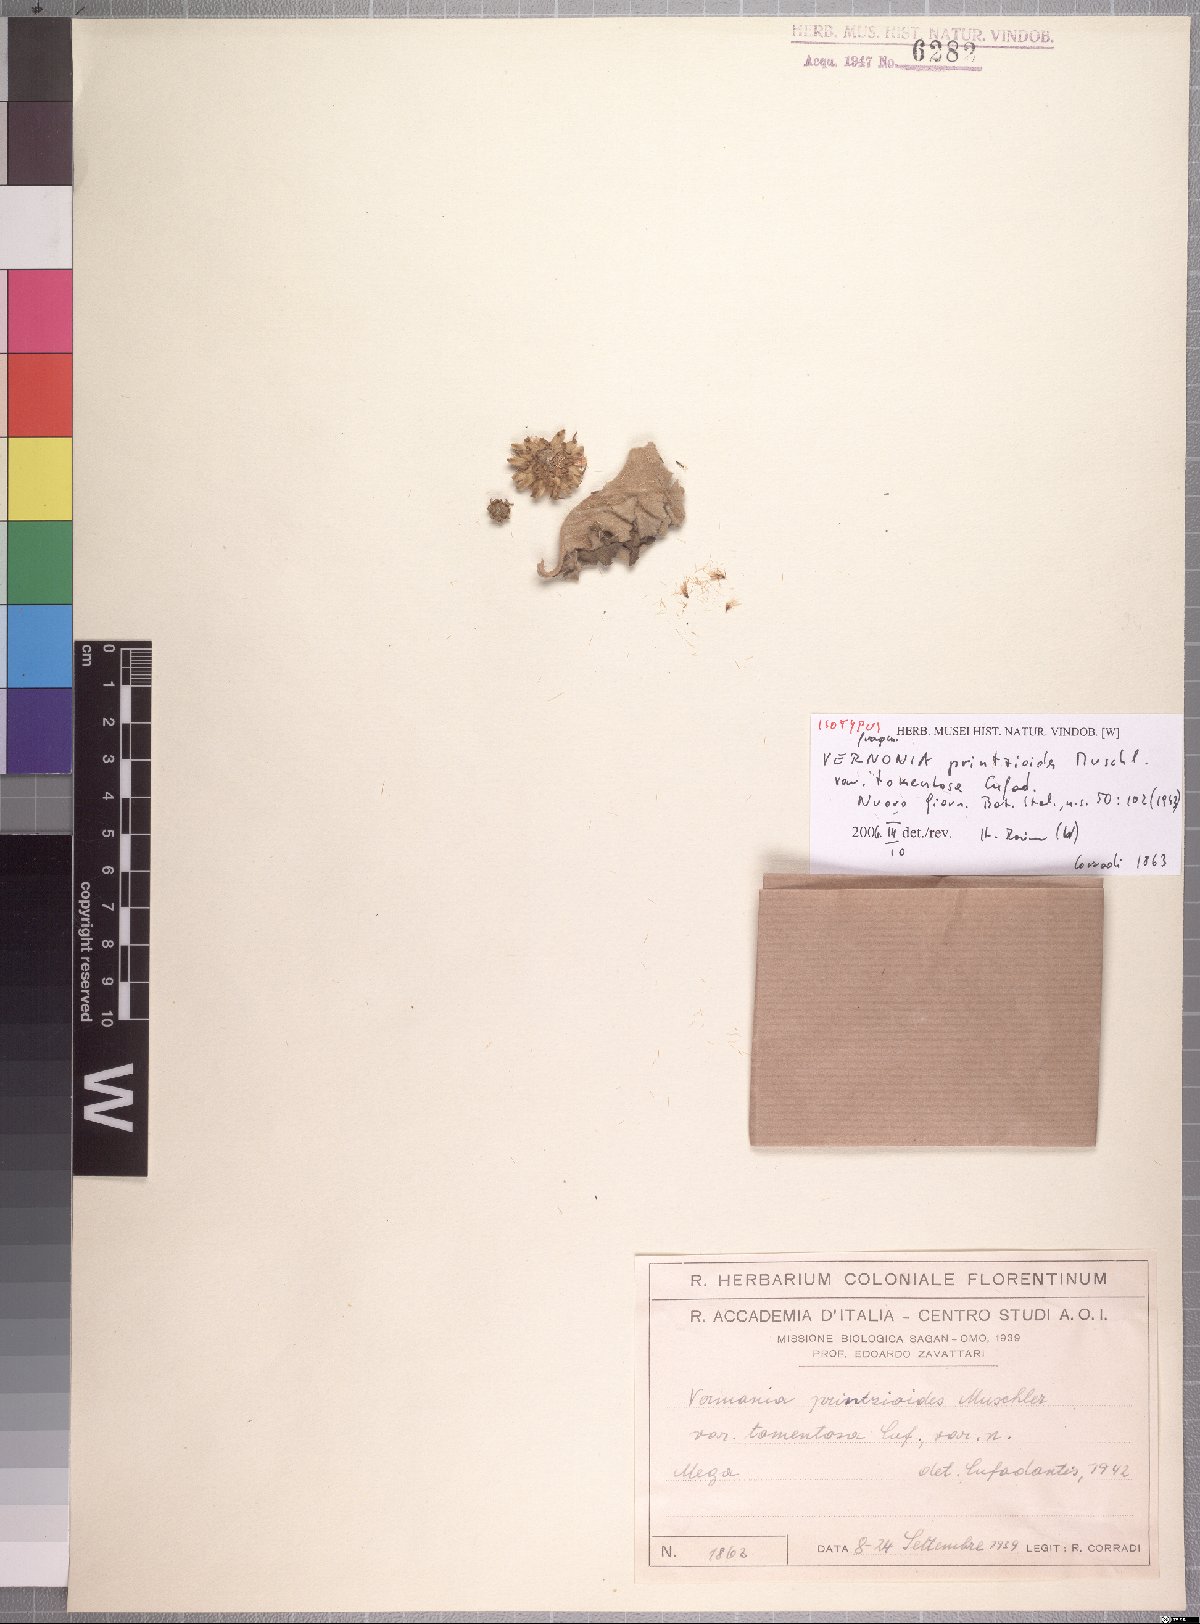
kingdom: Plantae
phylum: Tracheophyta
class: Magnoliopsida
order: Asterales
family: Asteraceae
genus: Orbivestus
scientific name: Orbivestus printzioides
